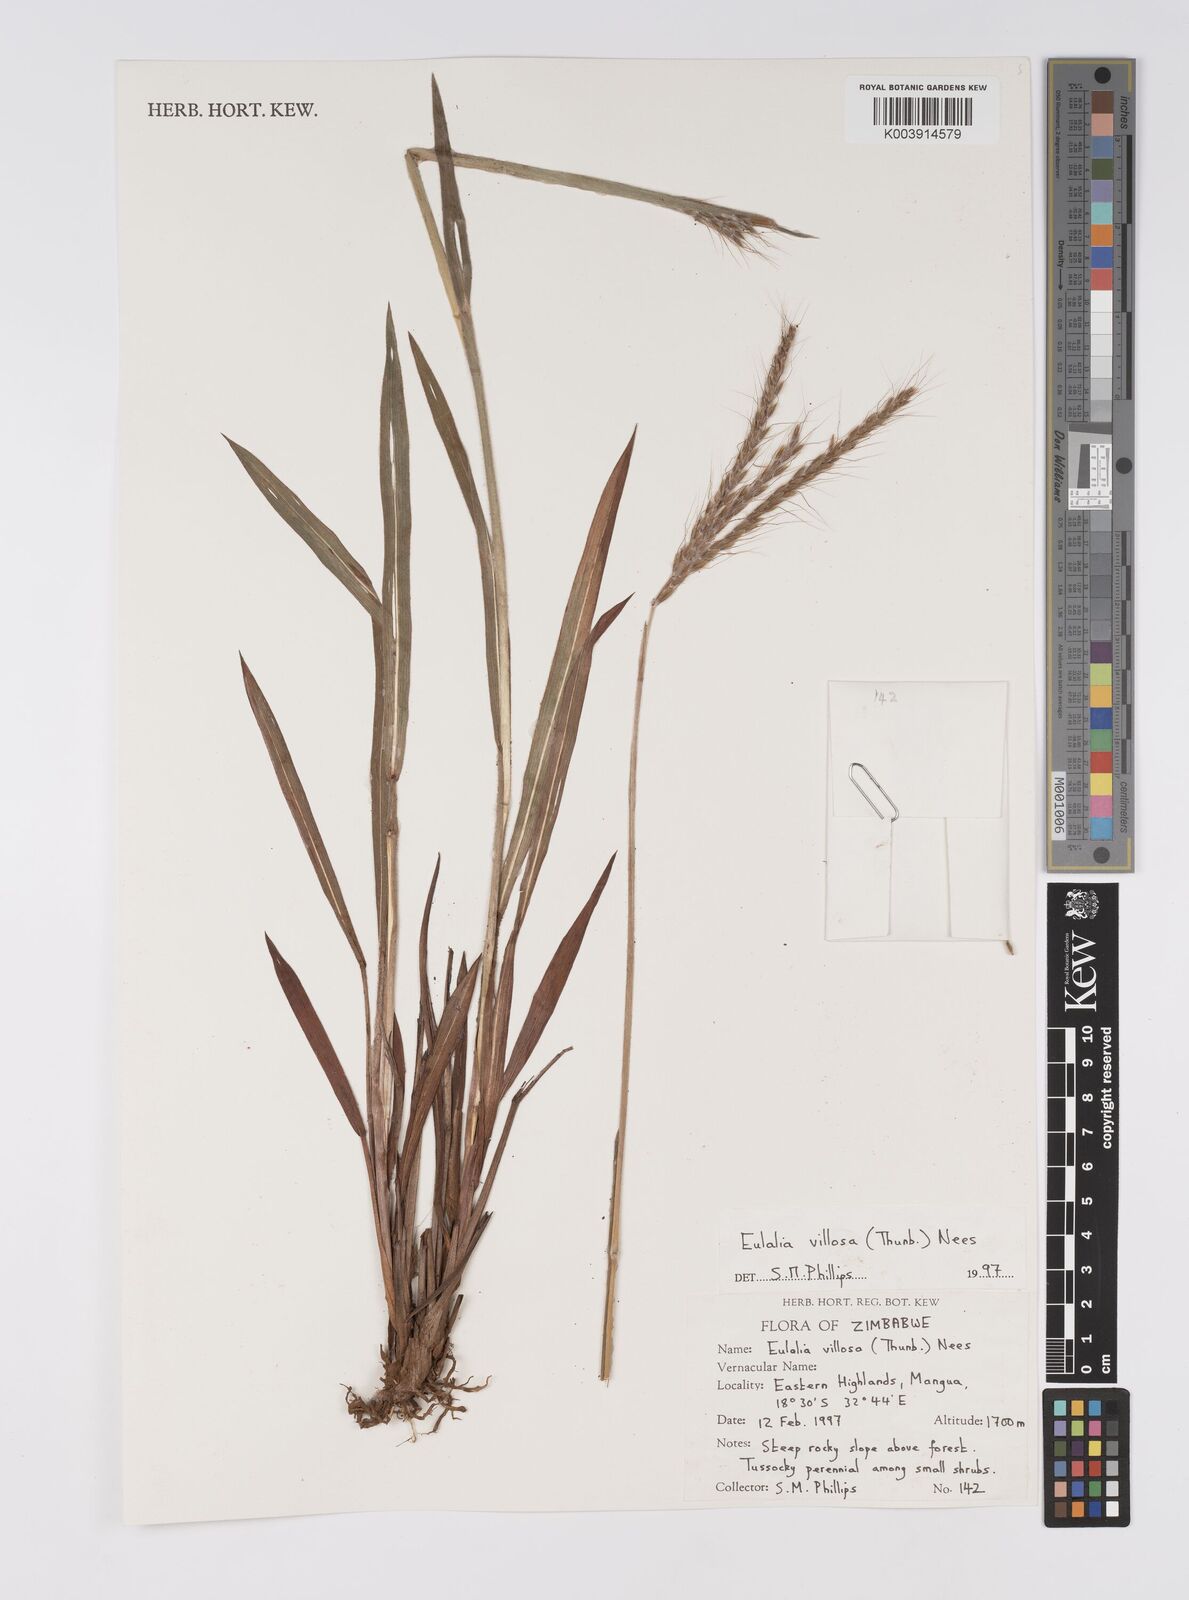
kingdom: Plantae
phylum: Tracheophyta
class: Liliopsida
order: Poales
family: Poaceae
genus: Eulalia
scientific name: Eulalia villosa
